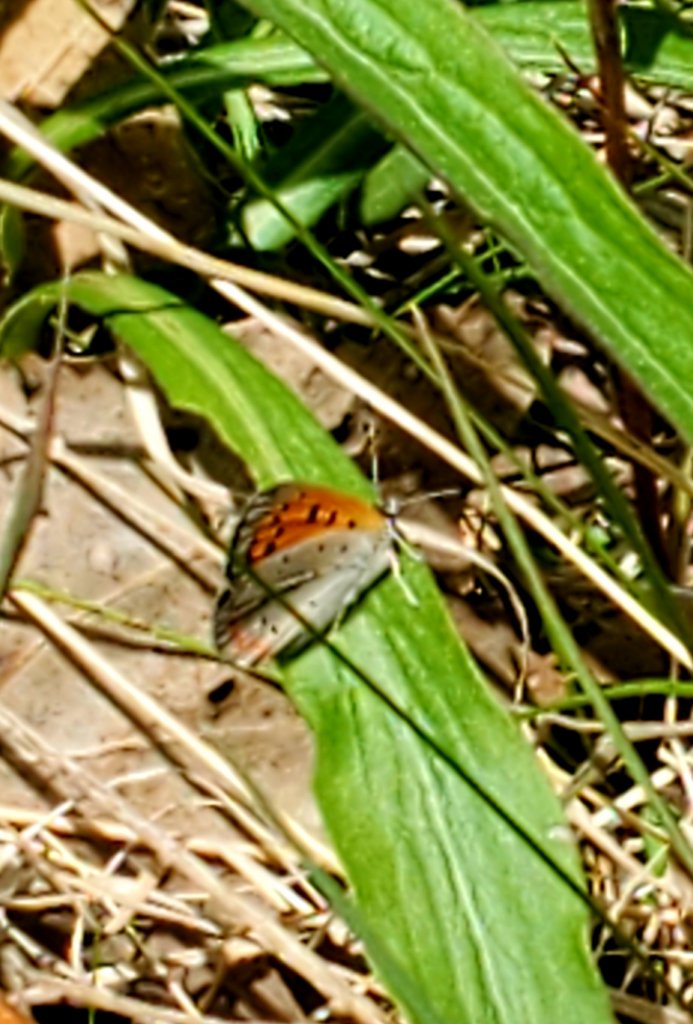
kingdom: Animalia
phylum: Arthropoda
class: Insecta
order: Lepidoptera
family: Lycaenidae
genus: Lycaena
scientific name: Lycaena phlaeas
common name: American Copper
